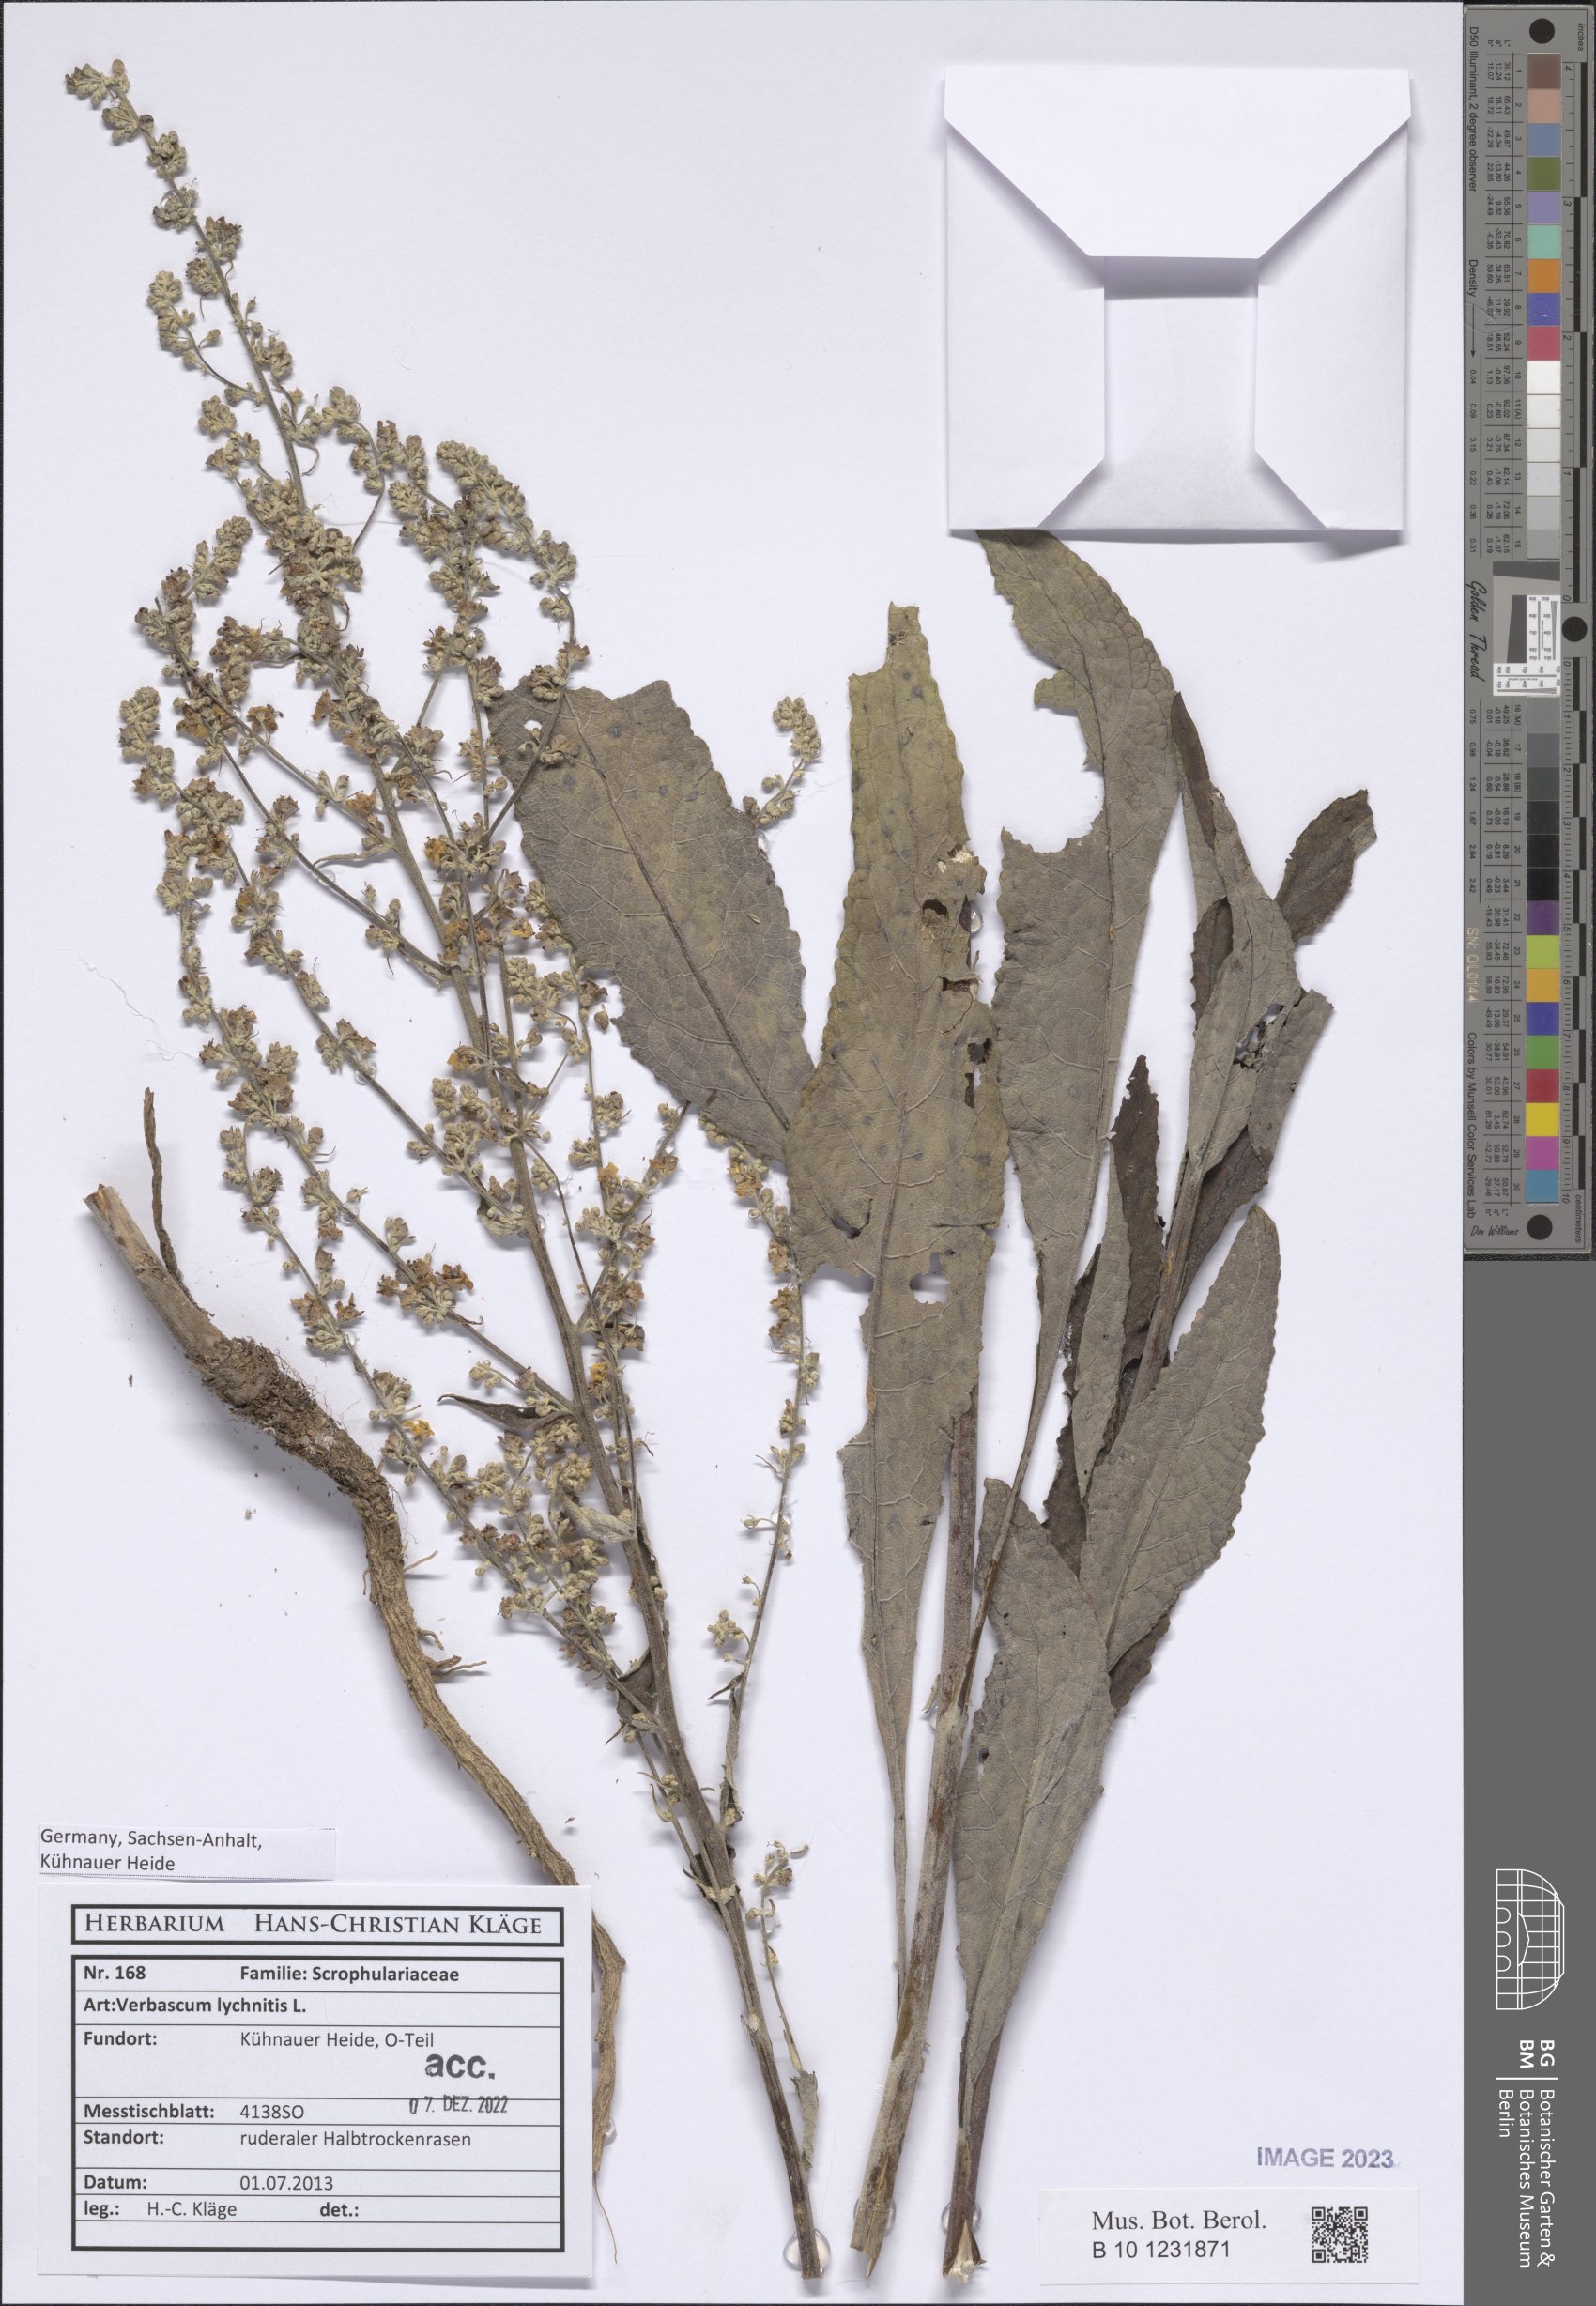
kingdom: Plantae
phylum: Tracheophyta
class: Magnoliopsida
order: Lamiales
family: Scrophulariaceae
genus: Verbascum
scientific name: Verbascum lychnitis
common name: White mullein
